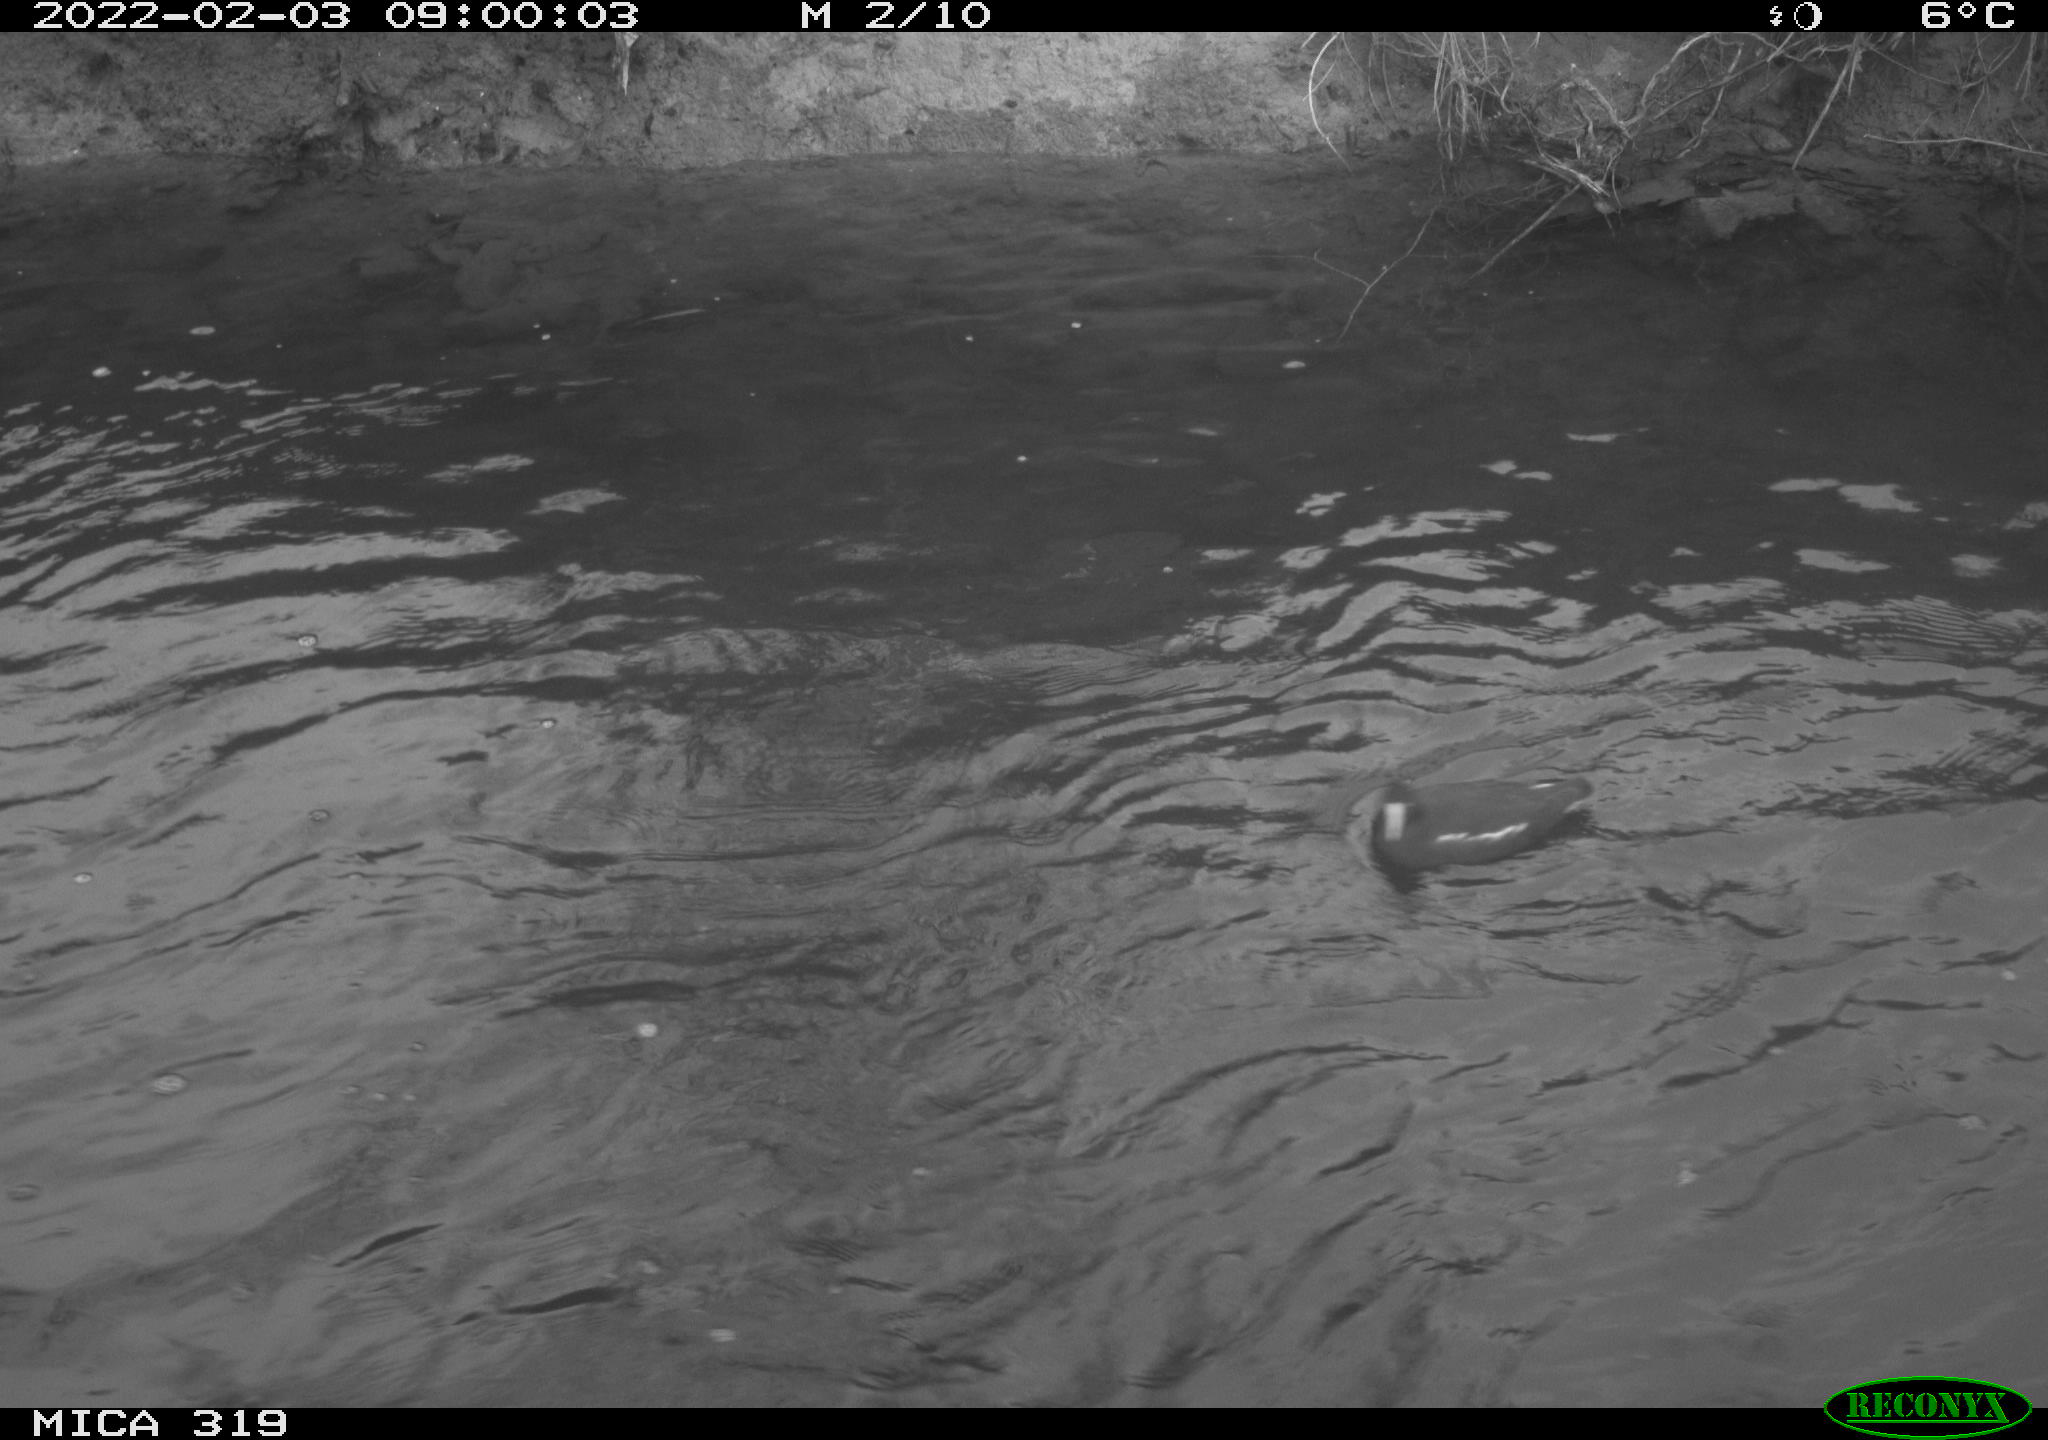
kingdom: Animalia
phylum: Chordata
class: Aves
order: Gruiformes
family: Rallidae
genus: Gallinula
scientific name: Gallinula chloropus
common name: Common moorhen
